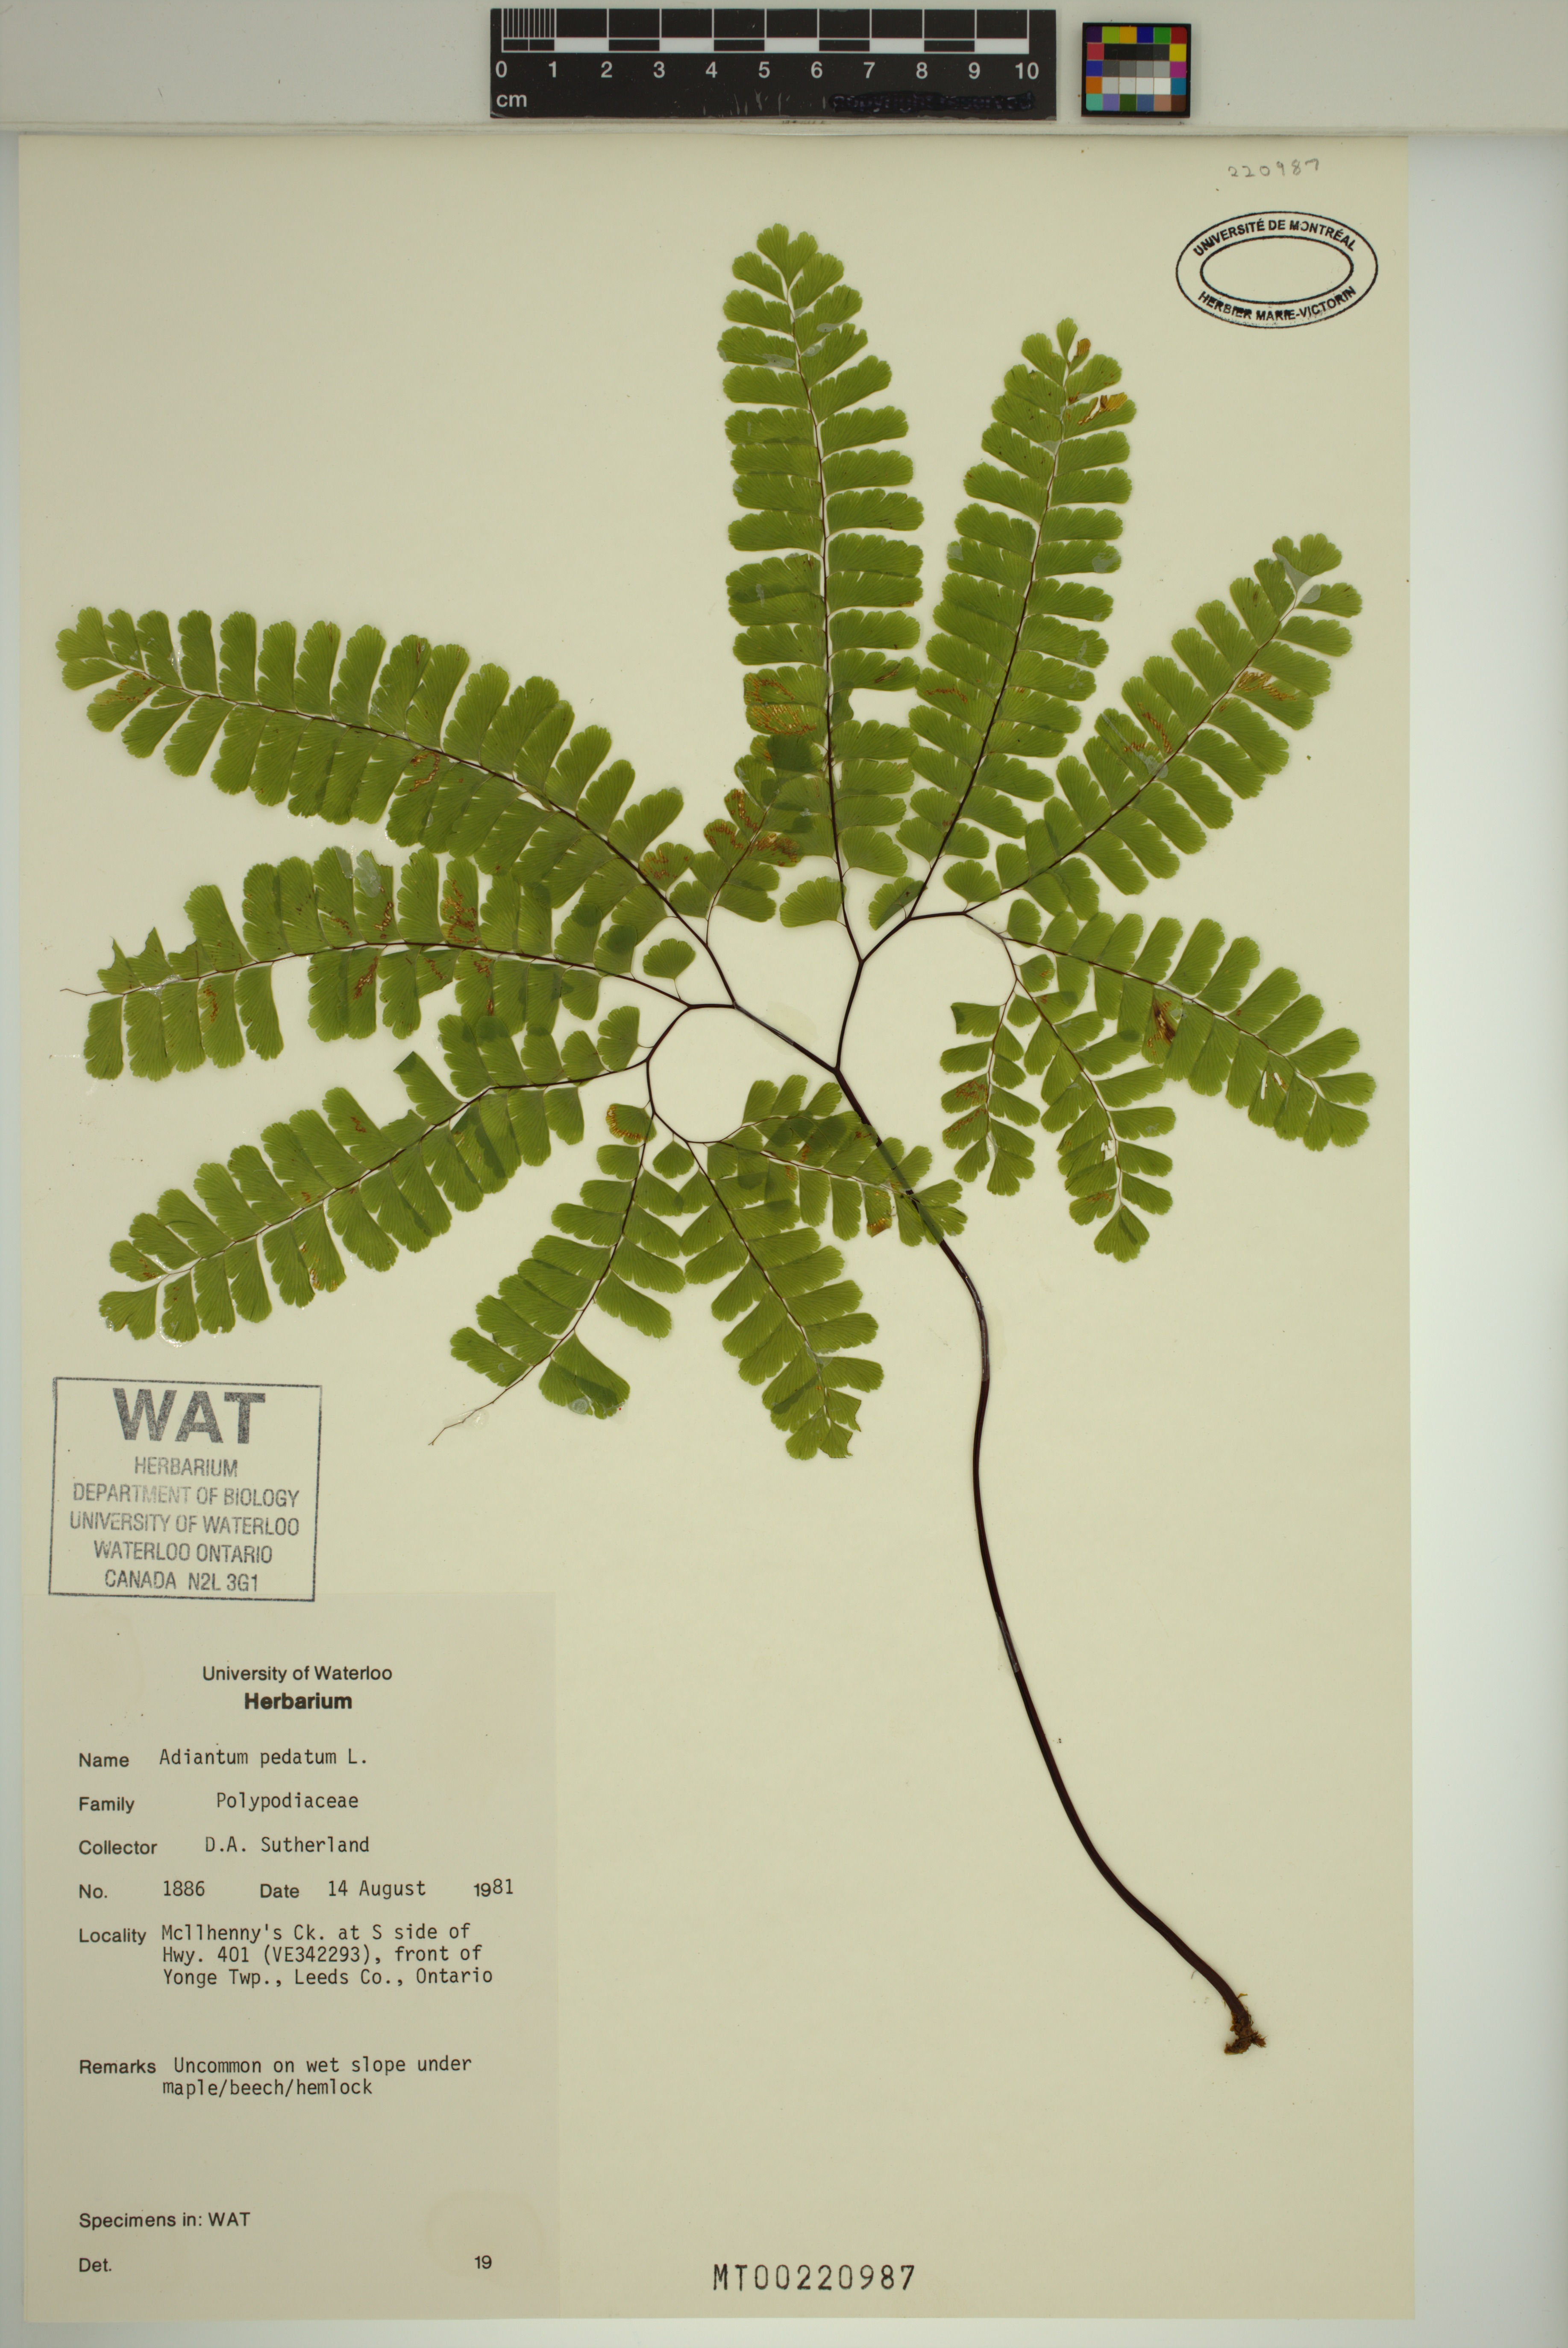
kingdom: Plantae
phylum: Tracheophyta
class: Polypodiopsida
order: Polypodiales
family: Pteridaceae
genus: Adiantum
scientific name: Adiantum pedatum
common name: Five-finger fern
